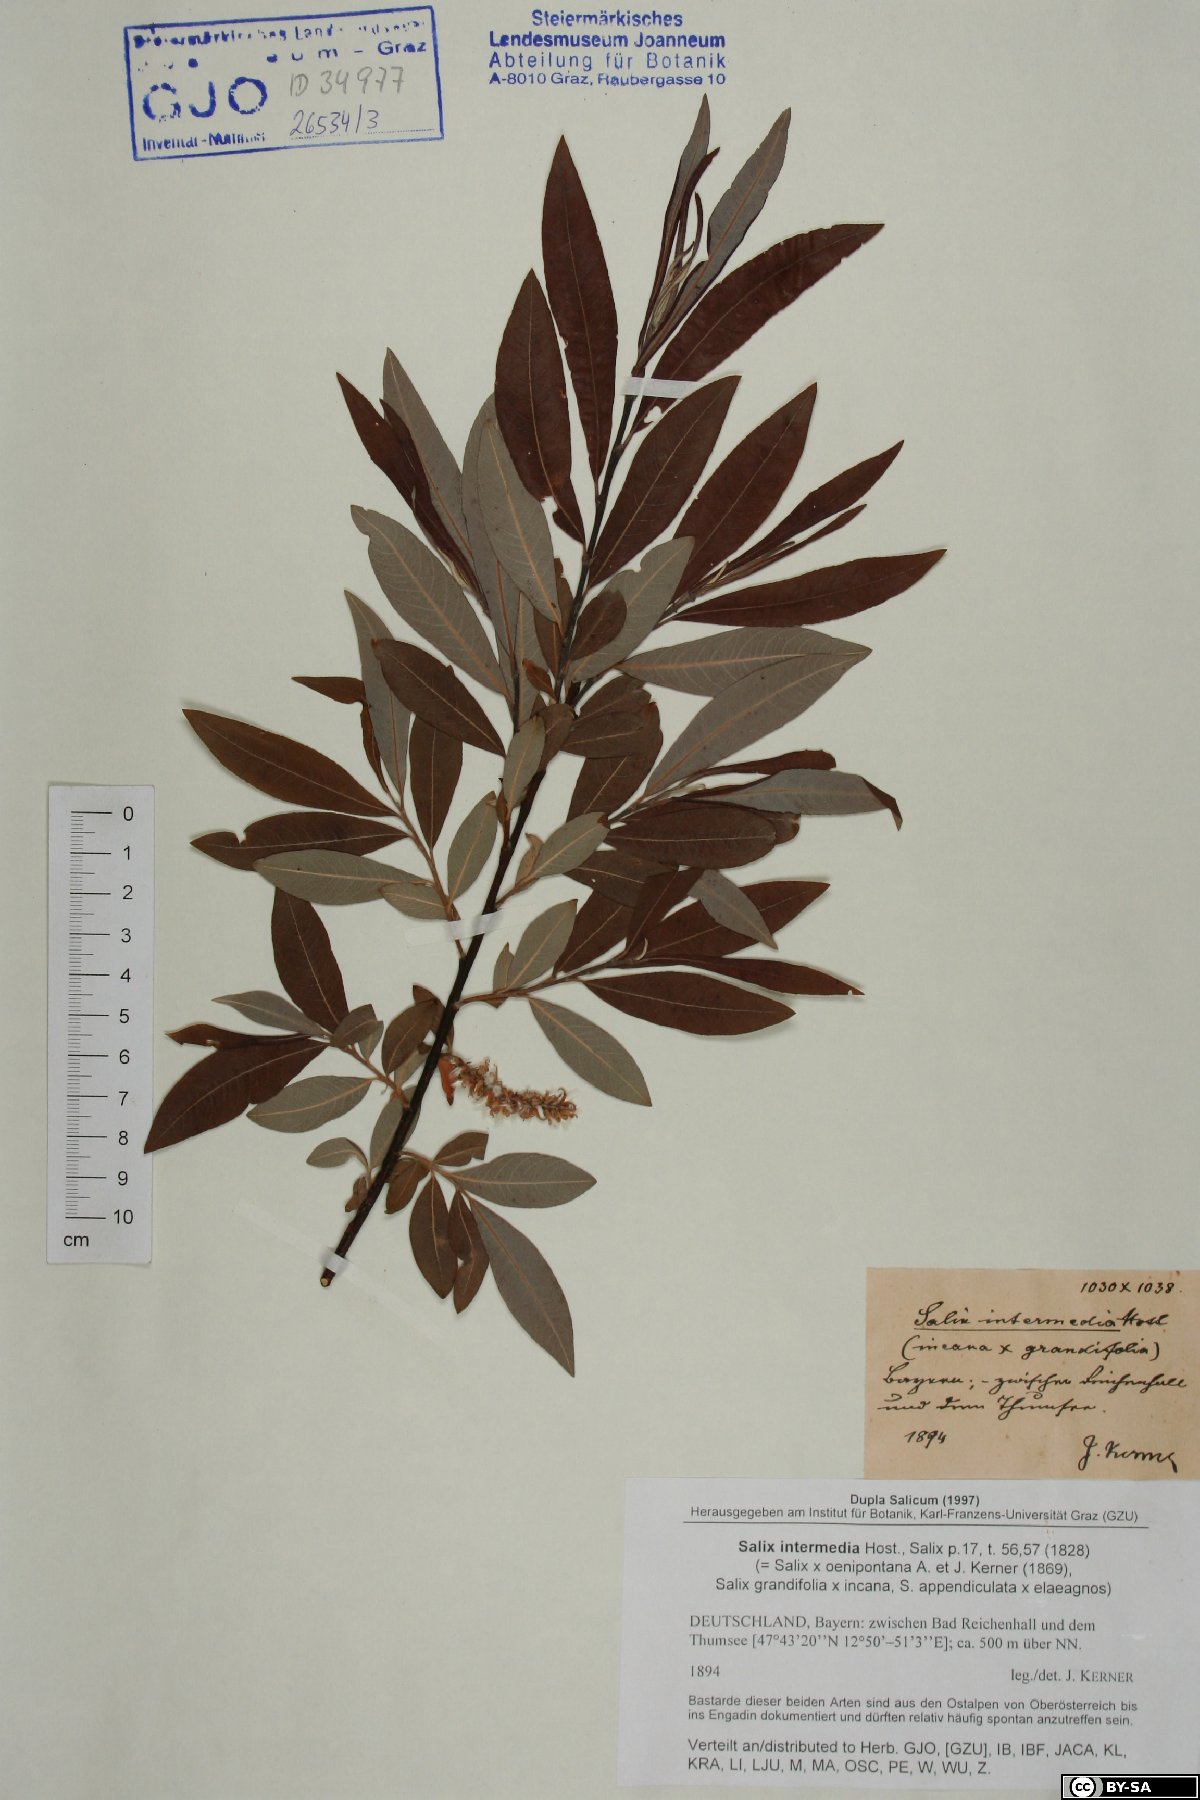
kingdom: Plantae
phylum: Tracheophyta
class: Magnoliopsida
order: Malpighiales
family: Salicaceae
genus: Salix
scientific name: Salix intermedia
